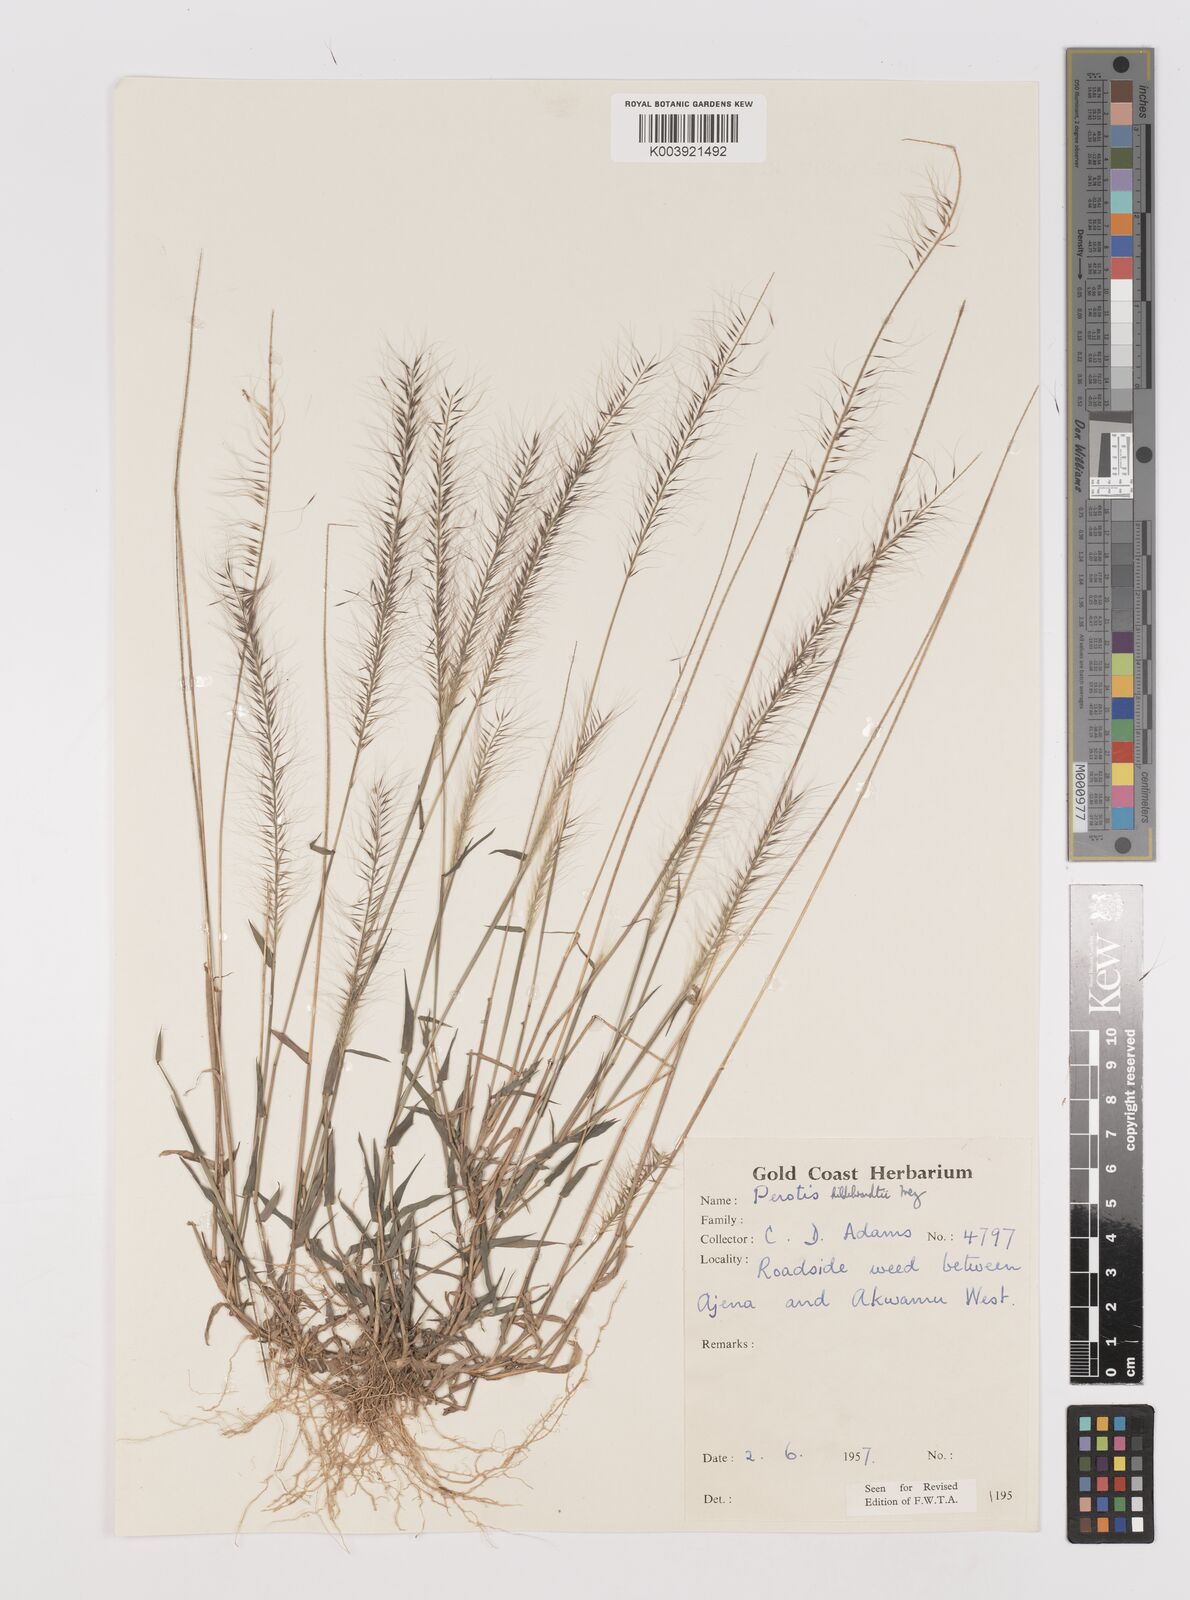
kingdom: Plantae
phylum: Tracheophyta
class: Liliopsida
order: Poales
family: Poaceae
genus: Perotis
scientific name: Perotis hildebrandtii
